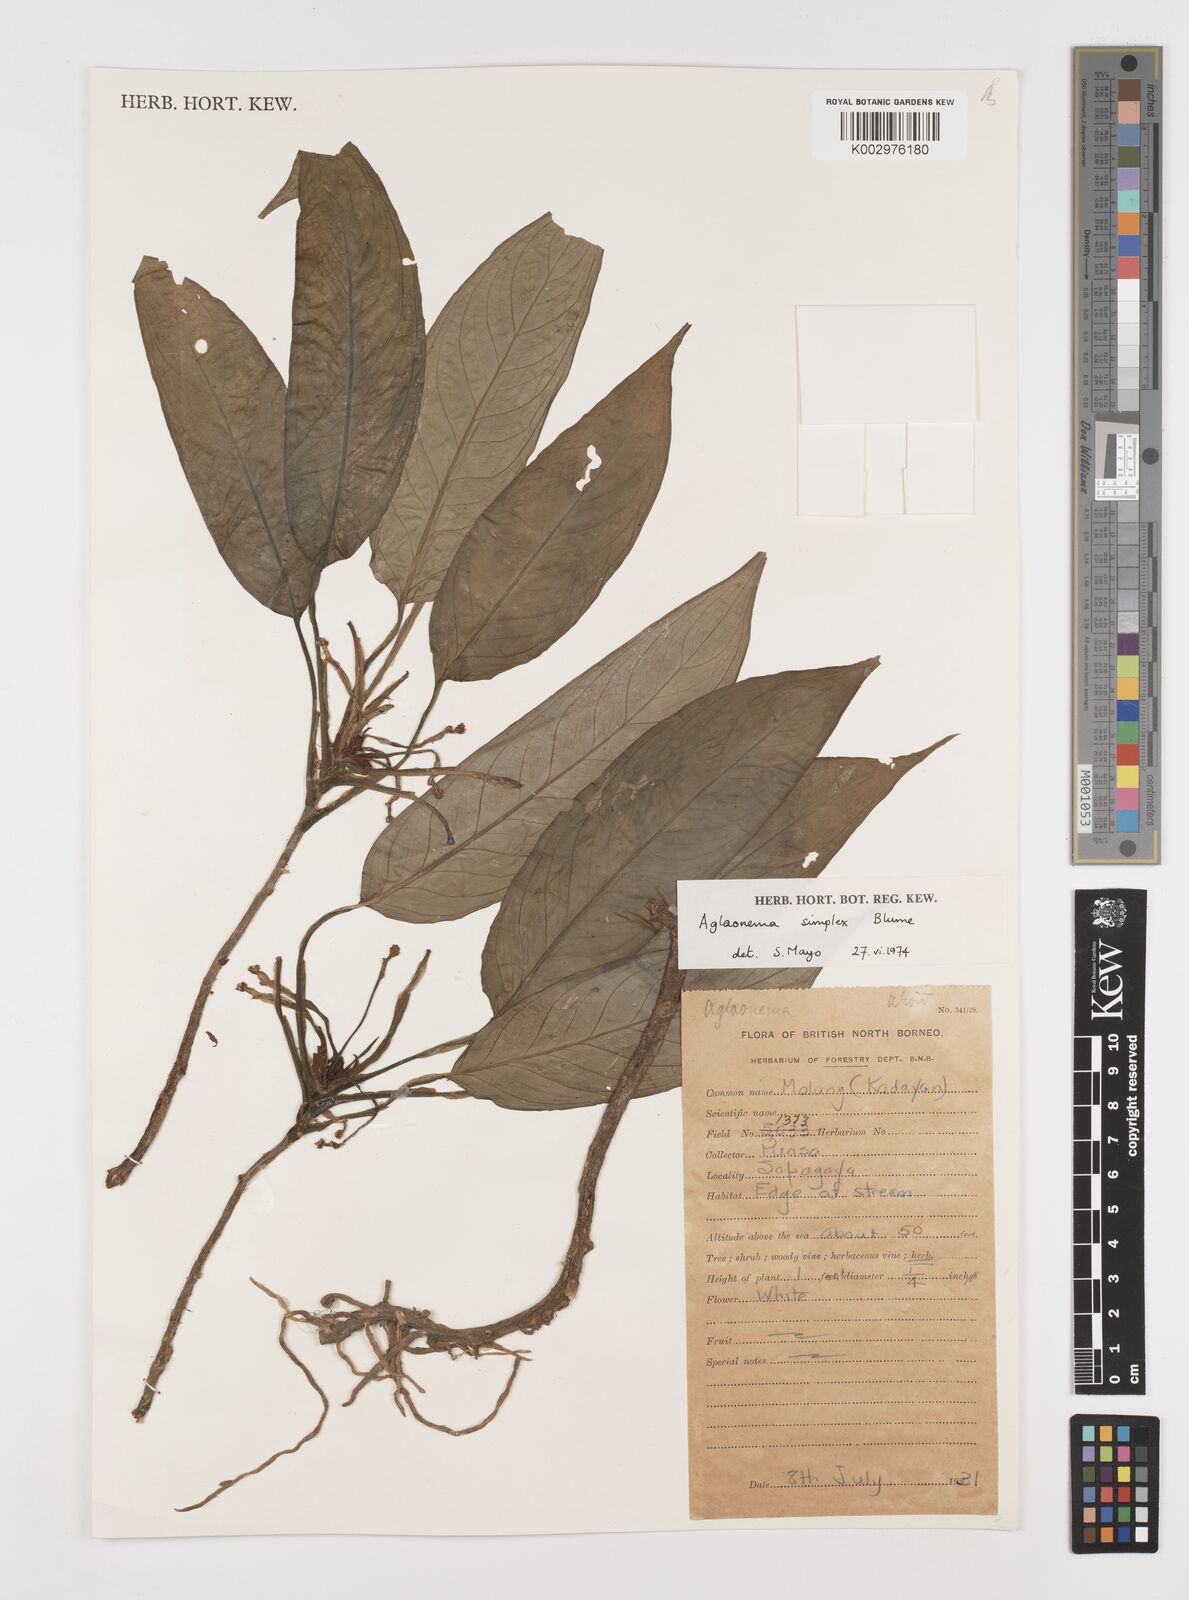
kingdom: Plantae
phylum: Tracheophyta
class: Liliopsida
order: Alismatales
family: Araceae
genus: Aglaonema
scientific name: Aglaonema simplex
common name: Malayan-sword
